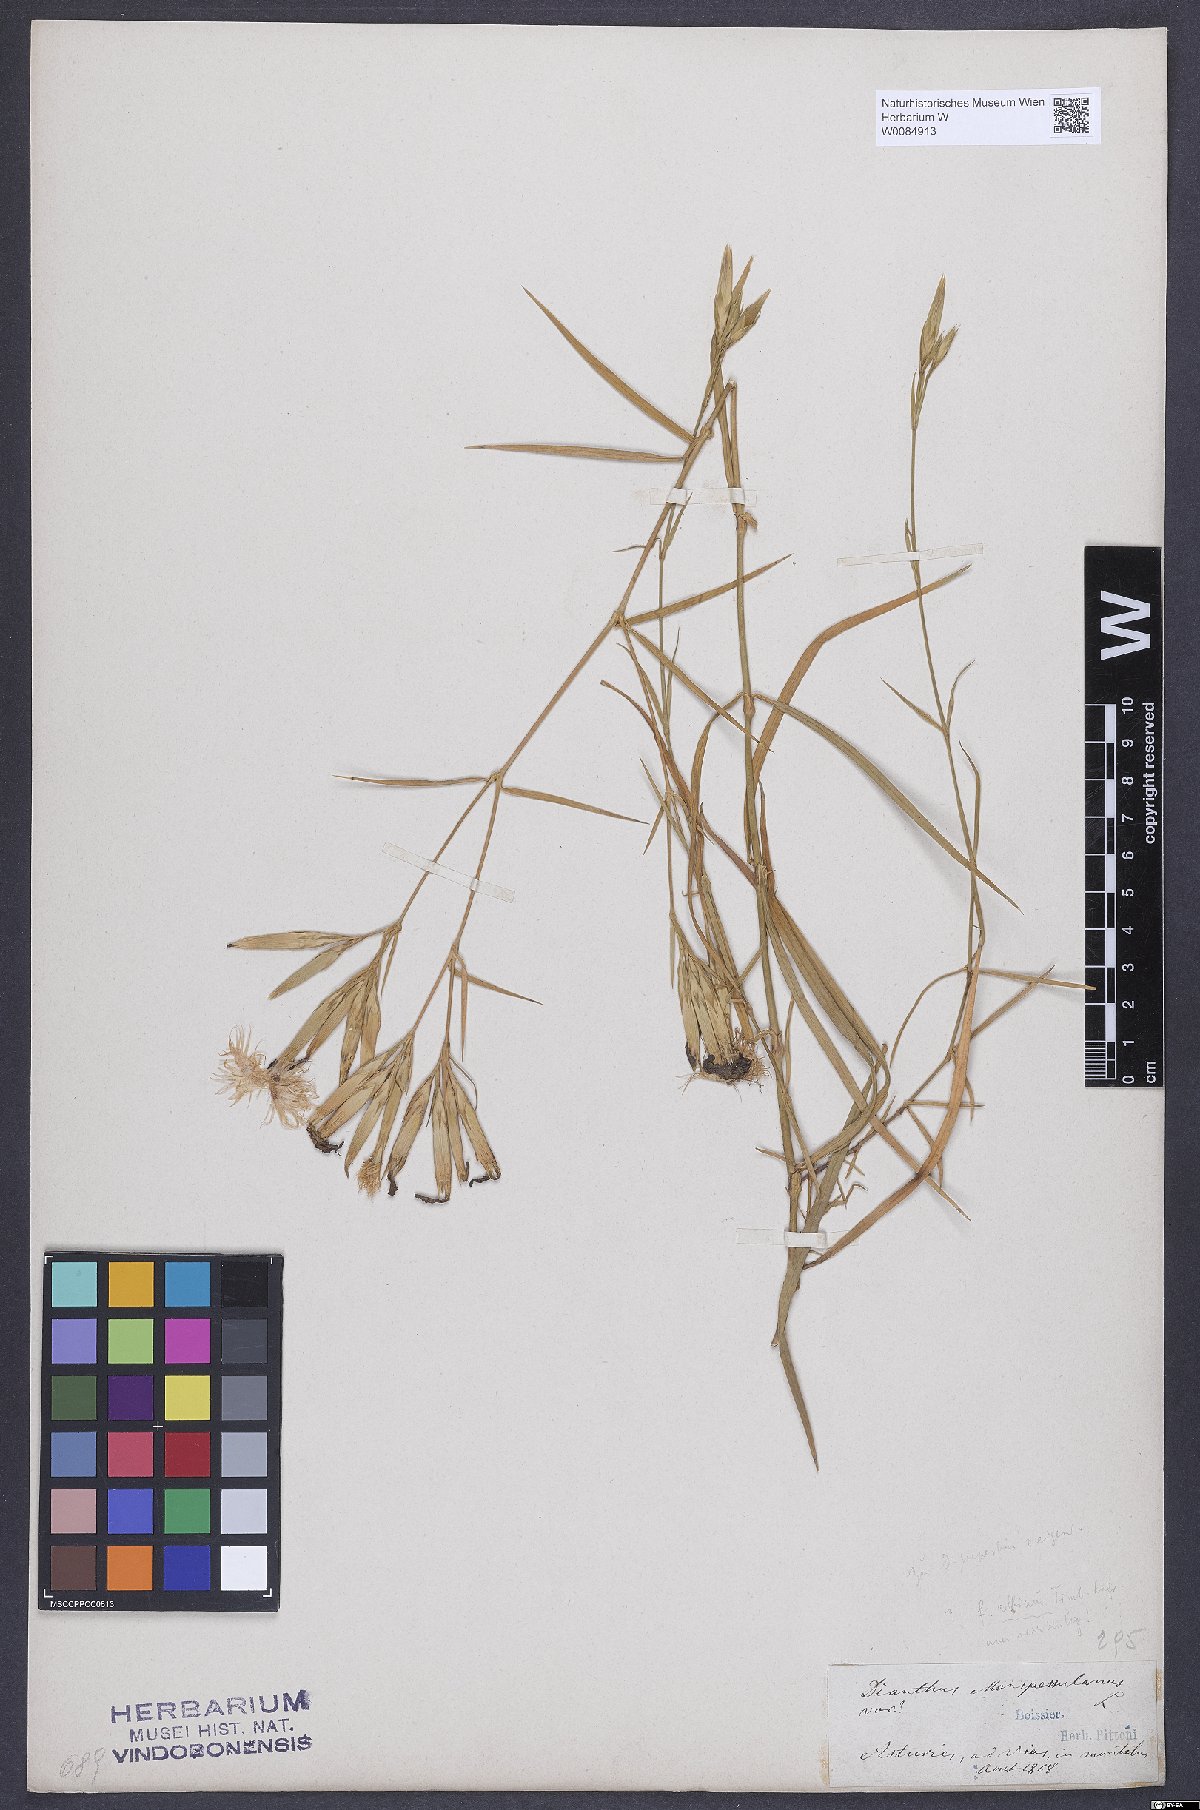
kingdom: Plantae
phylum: Tracheophyta
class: Magnoliopsida
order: Caryophyllales
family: Caryophyllaceae
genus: Dianthus
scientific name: Dianthus hyssopifolius
